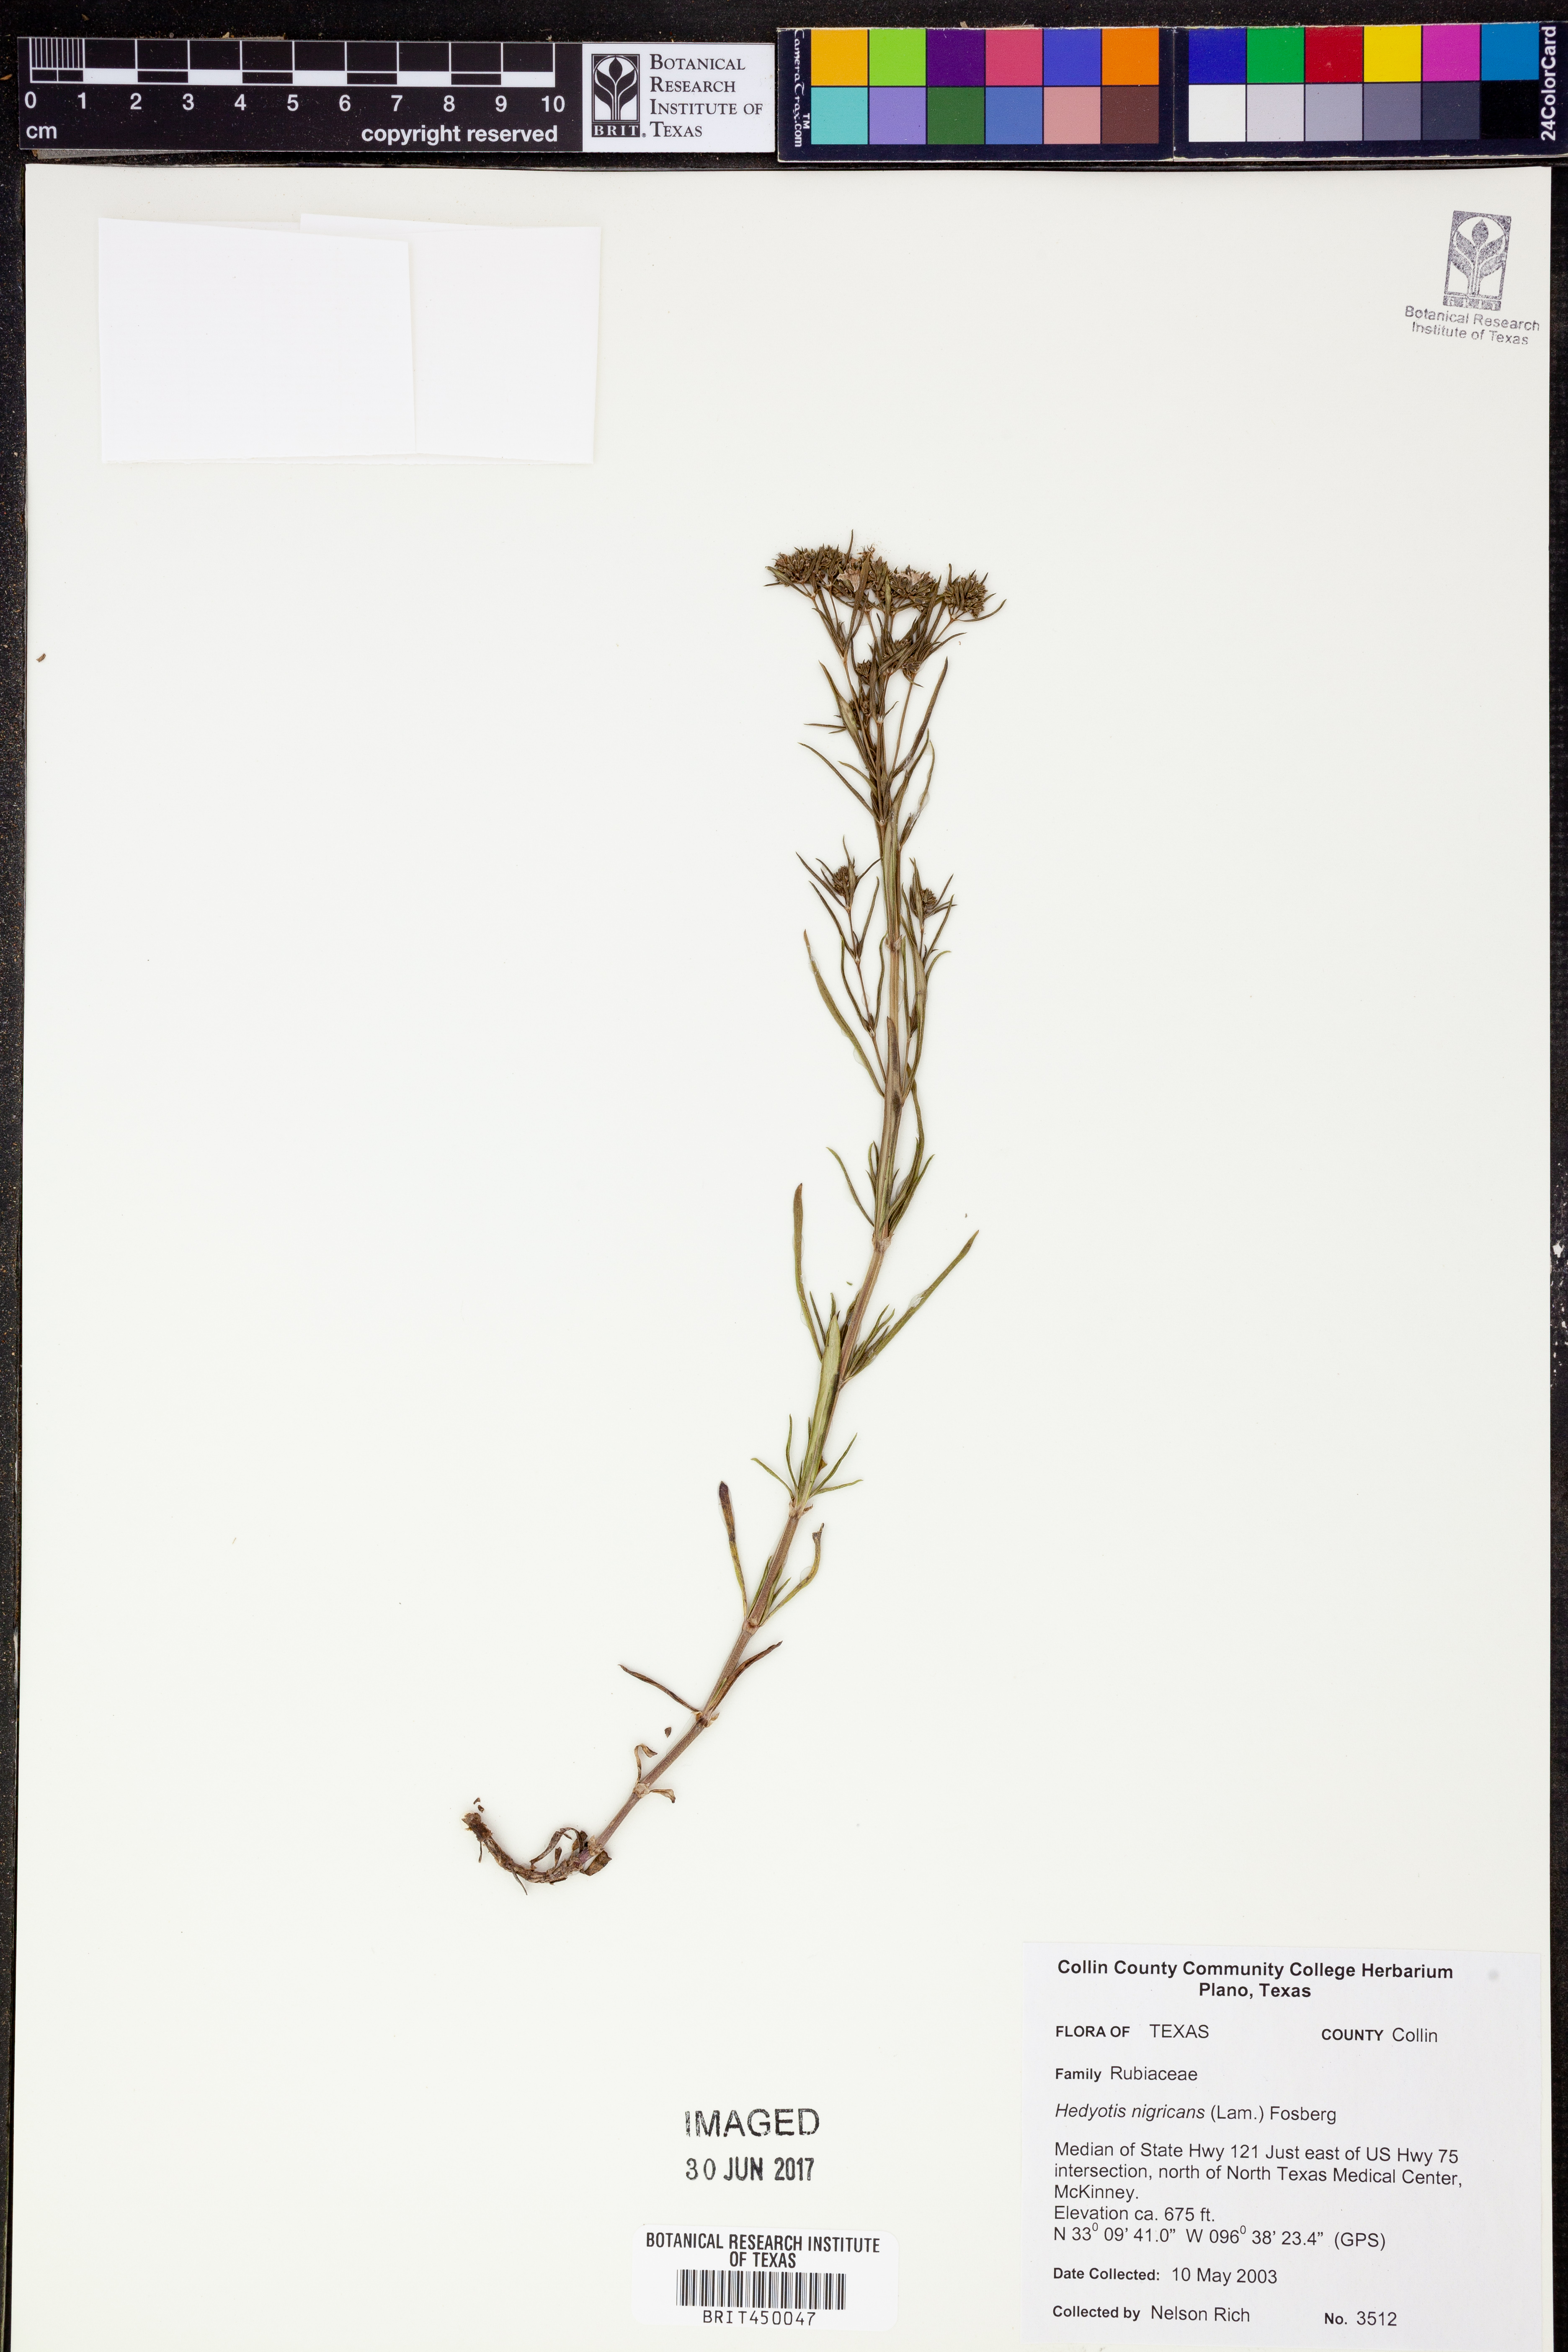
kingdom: Plantae
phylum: Tracheophyta
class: Magnoliopsida
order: Gentianales
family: Rubiaceae
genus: Stenaria
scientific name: Stenaria nigricans
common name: Diamondflowers
